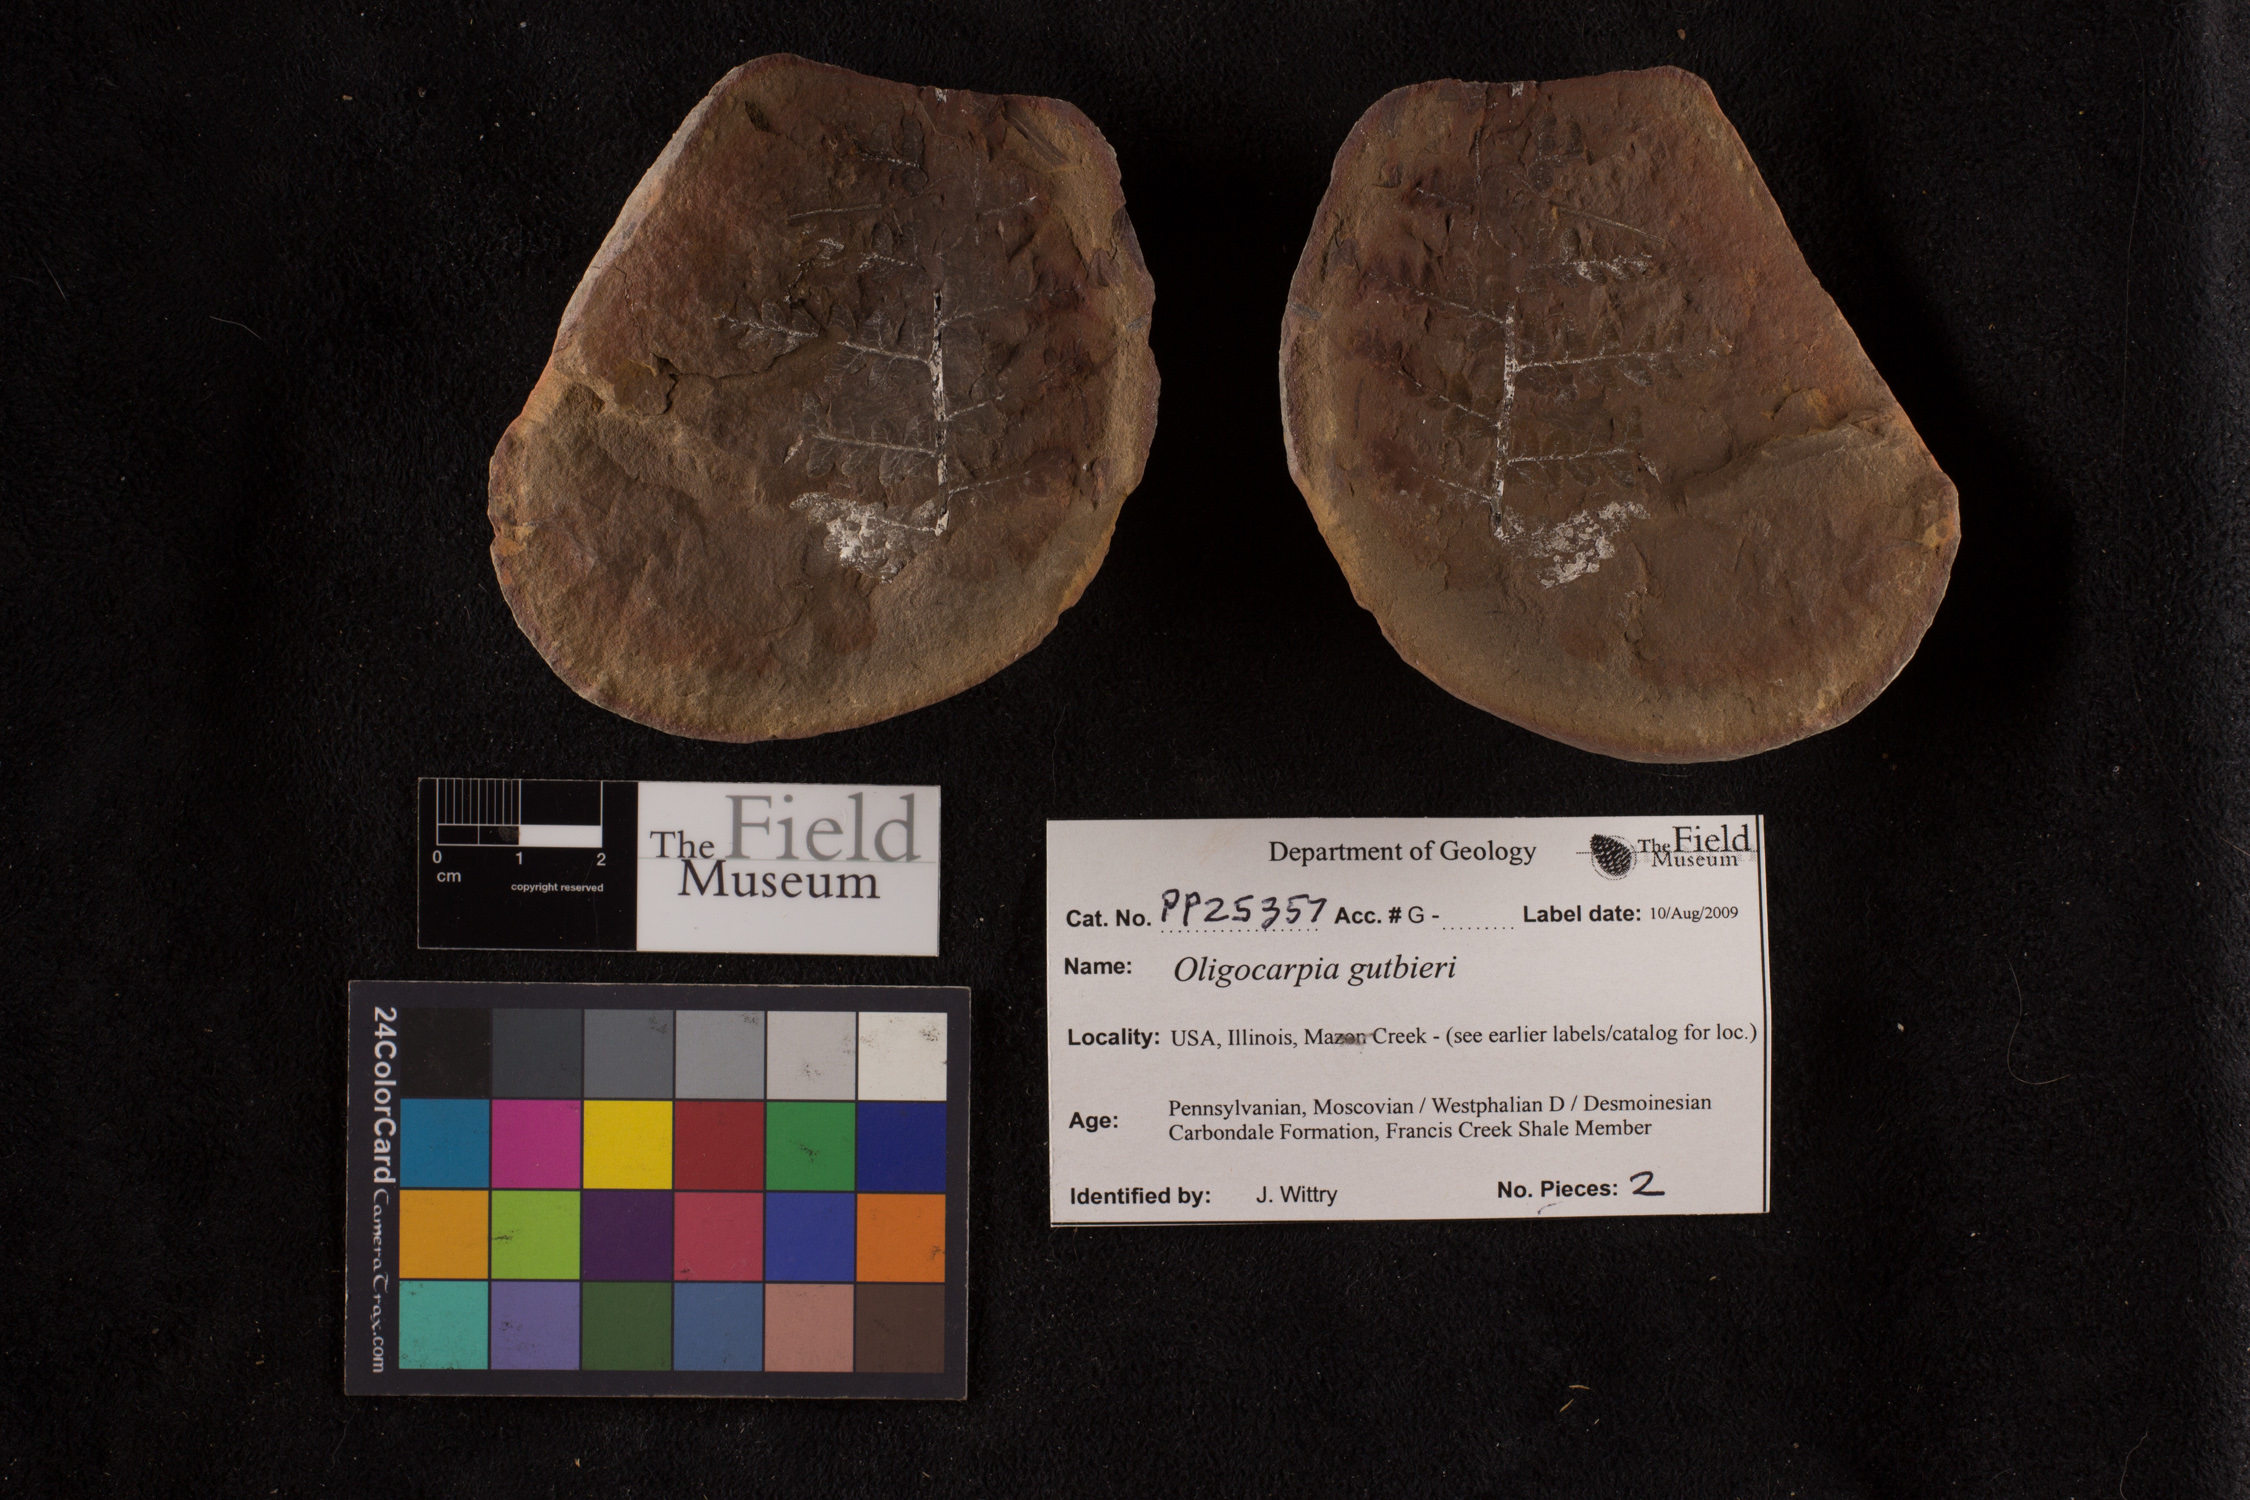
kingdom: Plantae
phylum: Tracheophyta
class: Polypodiopsida
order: Gleicheniales
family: Gleicheniaceae
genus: Oligocarpia
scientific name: Oligocarpia
